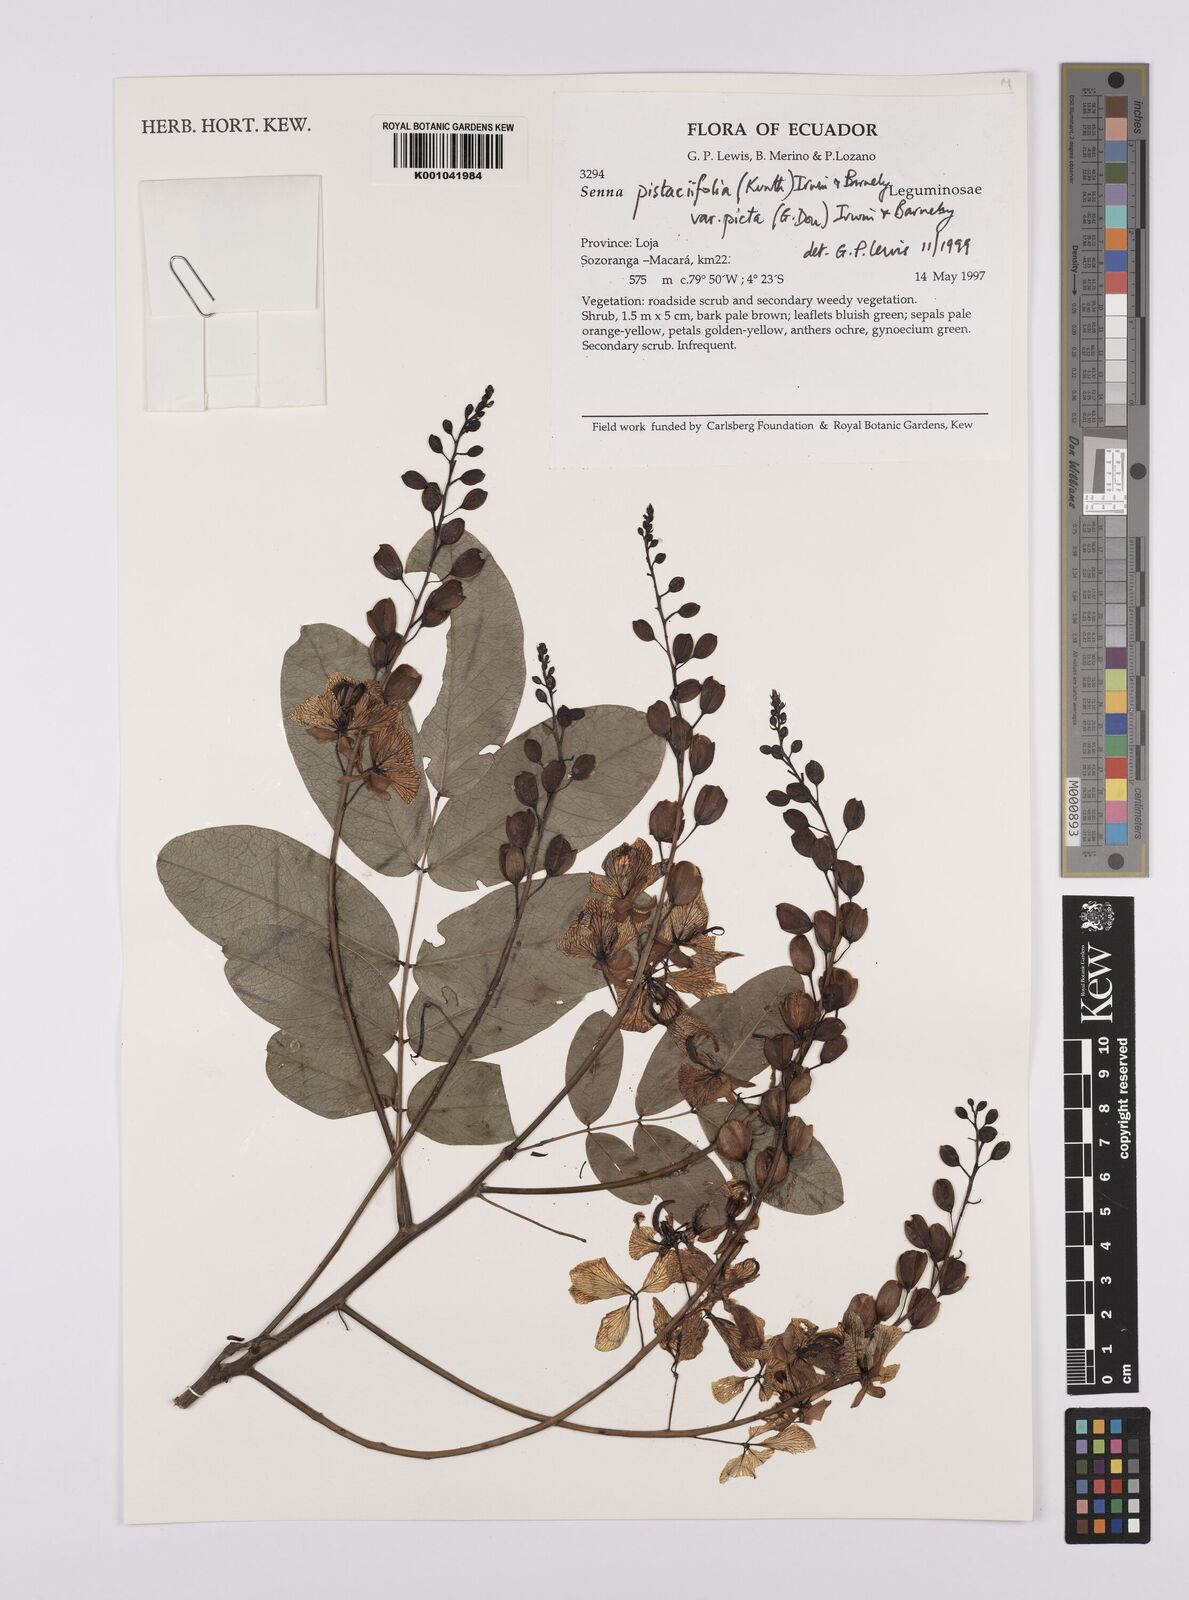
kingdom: Plantae
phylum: Tracheophyta
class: Magnoliopsida
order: Fabales
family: Fabaceae
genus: Senna
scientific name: Senna pistaciifolia
